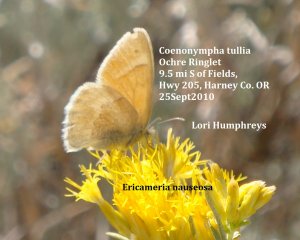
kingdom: Animalia
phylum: Arthropoda
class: Insecta
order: Lepidoptera
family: Nymphalidae
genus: Coenonympha
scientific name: Coenonympha tullia
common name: Large Heath
